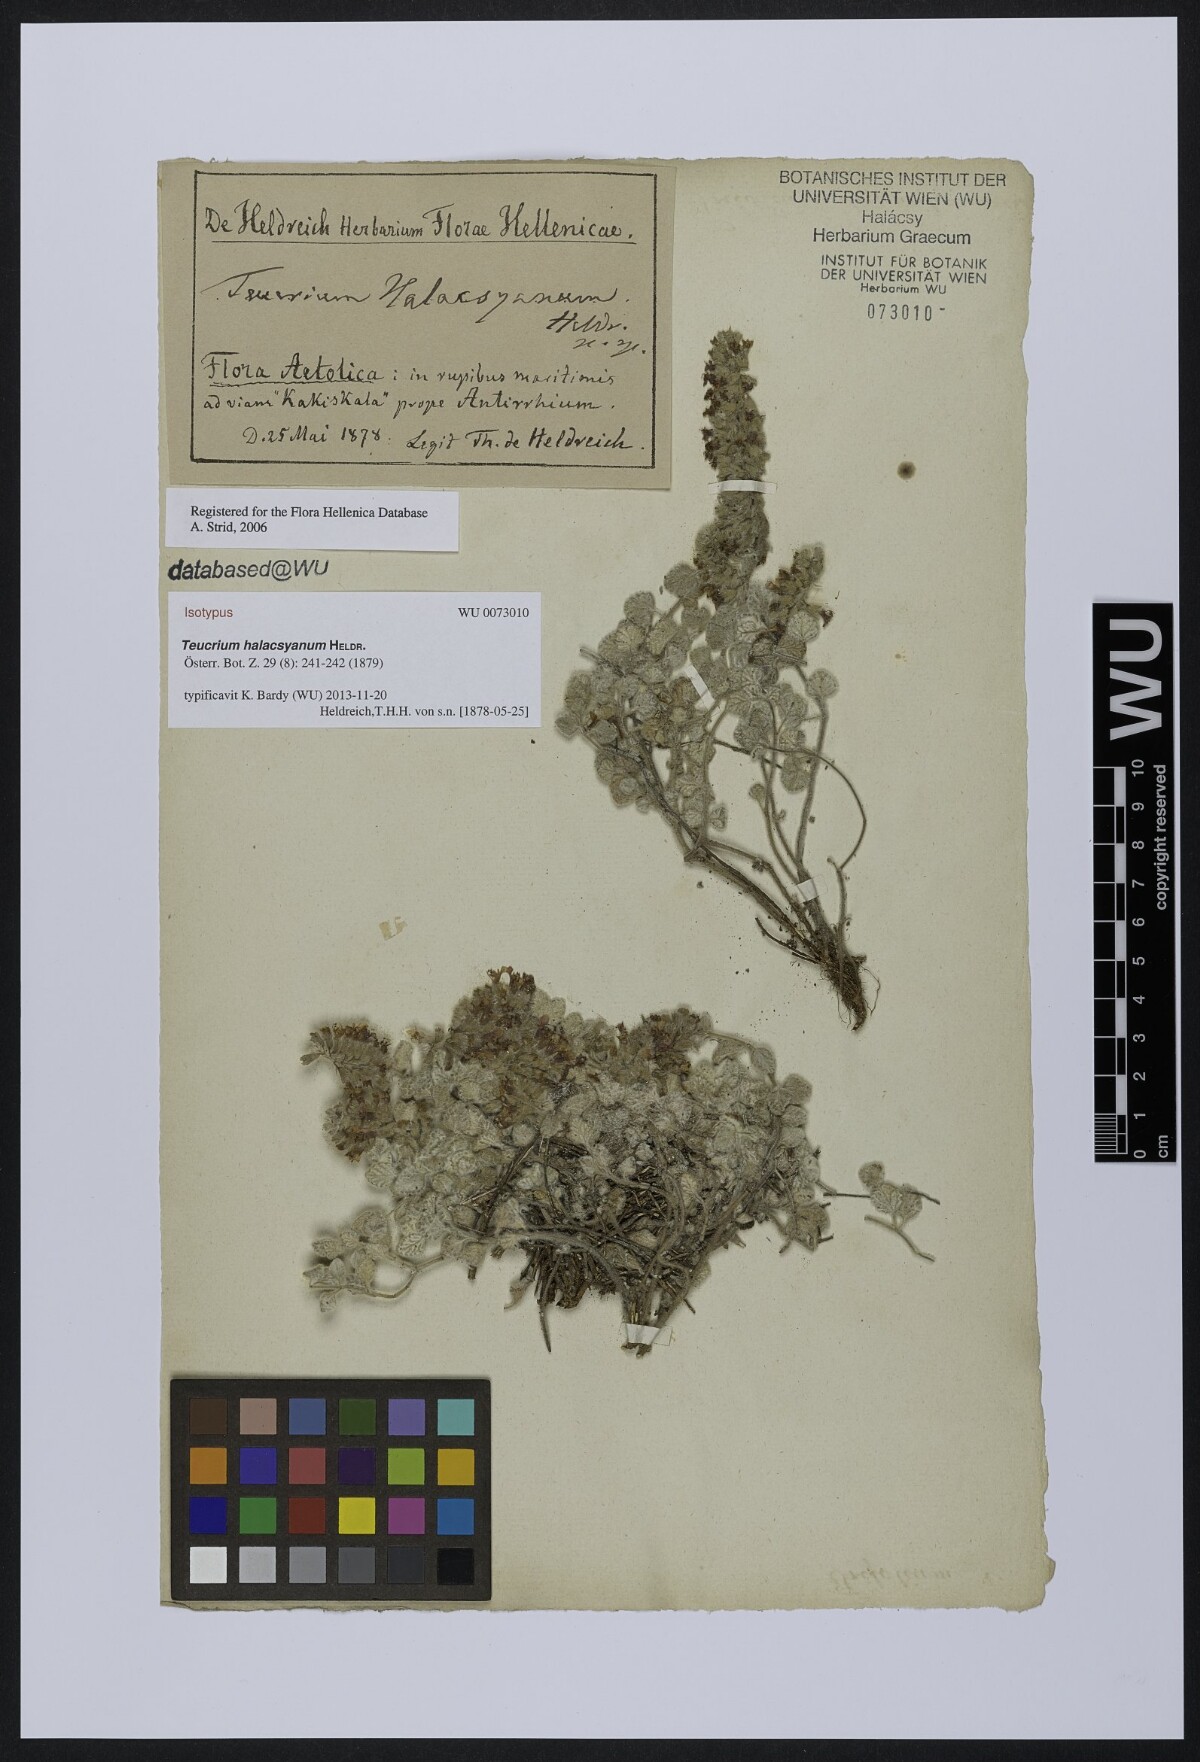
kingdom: Plantae
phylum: Tracheophyta
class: Magnoliopsida
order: Lamiales
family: Lamiaceae
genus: Teucrium
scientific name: Teucrium halacsyanum
